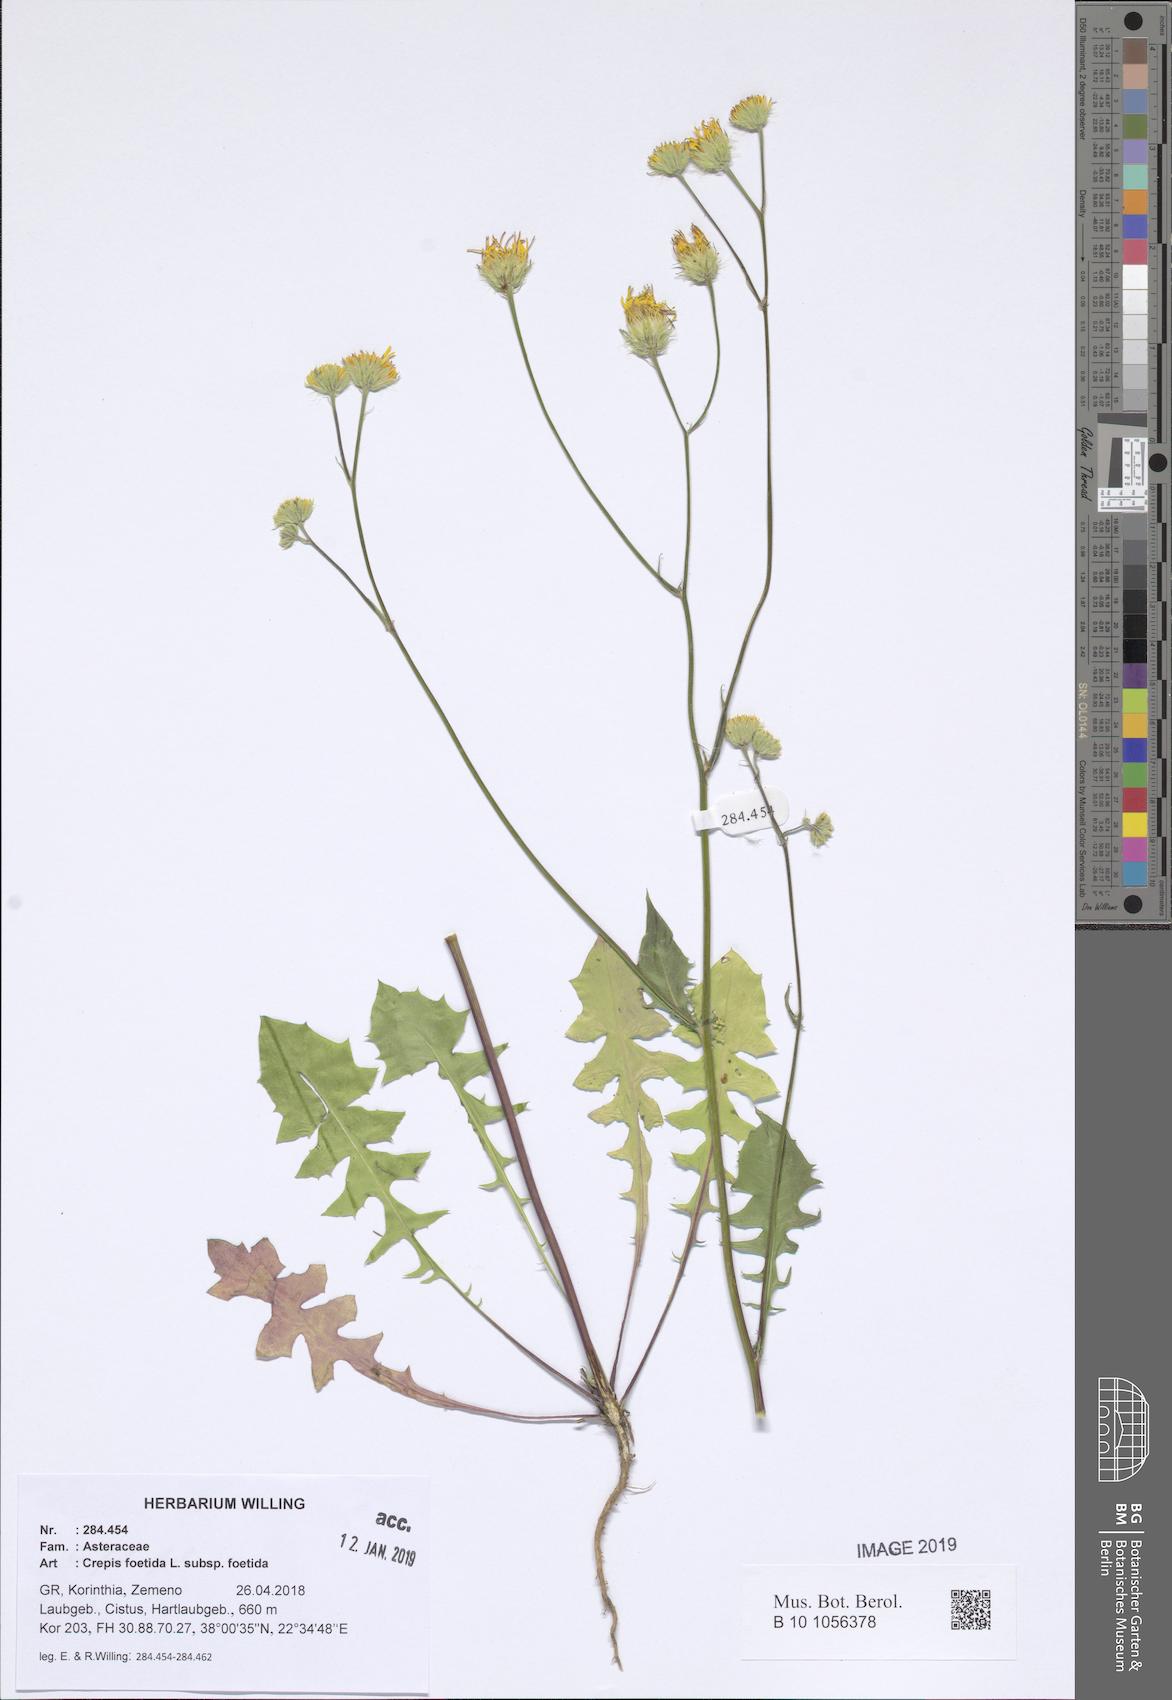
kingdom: Plantae
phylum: Tracheophyta
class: Magnoliopsida
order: Asterales
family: Asteraceae
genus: Crepis
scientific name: Crepis foetida
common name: Stinking hawk's-beard
